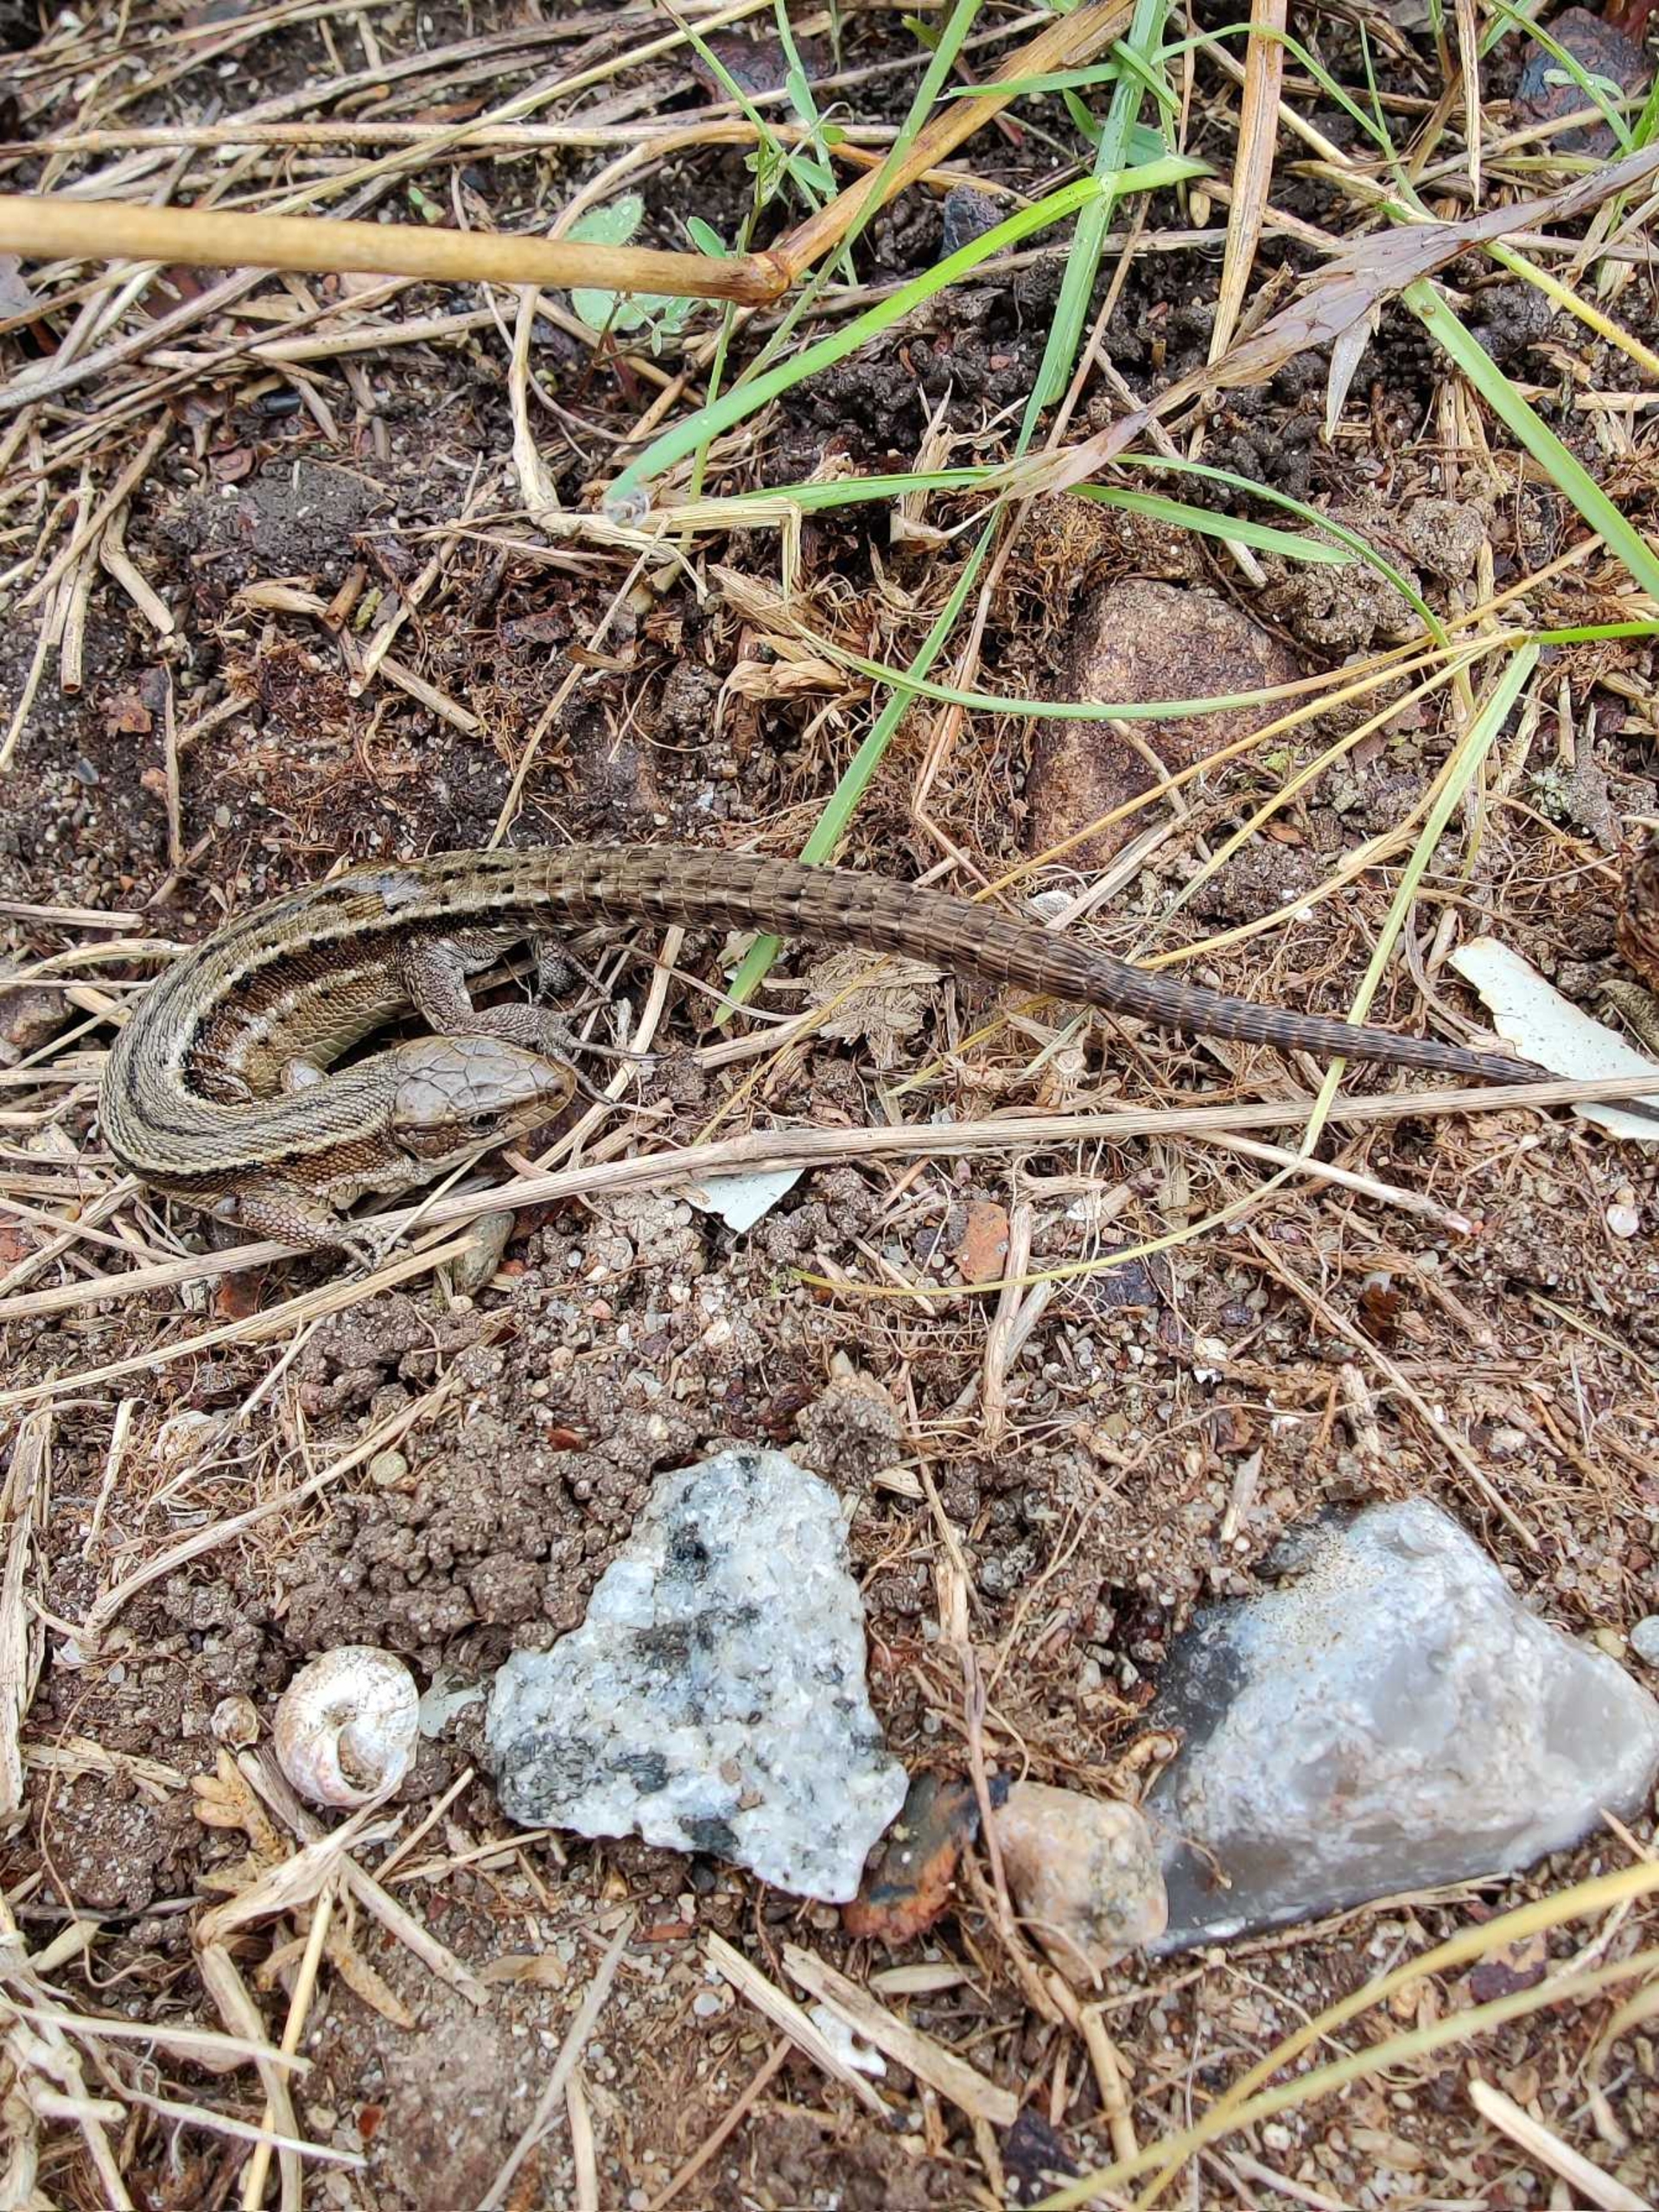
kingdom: Animalia
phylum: Chordata
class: Squamata
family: Lacertidae
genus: Zootoca
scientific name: Zootoca vivipara
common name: Skovfirben
